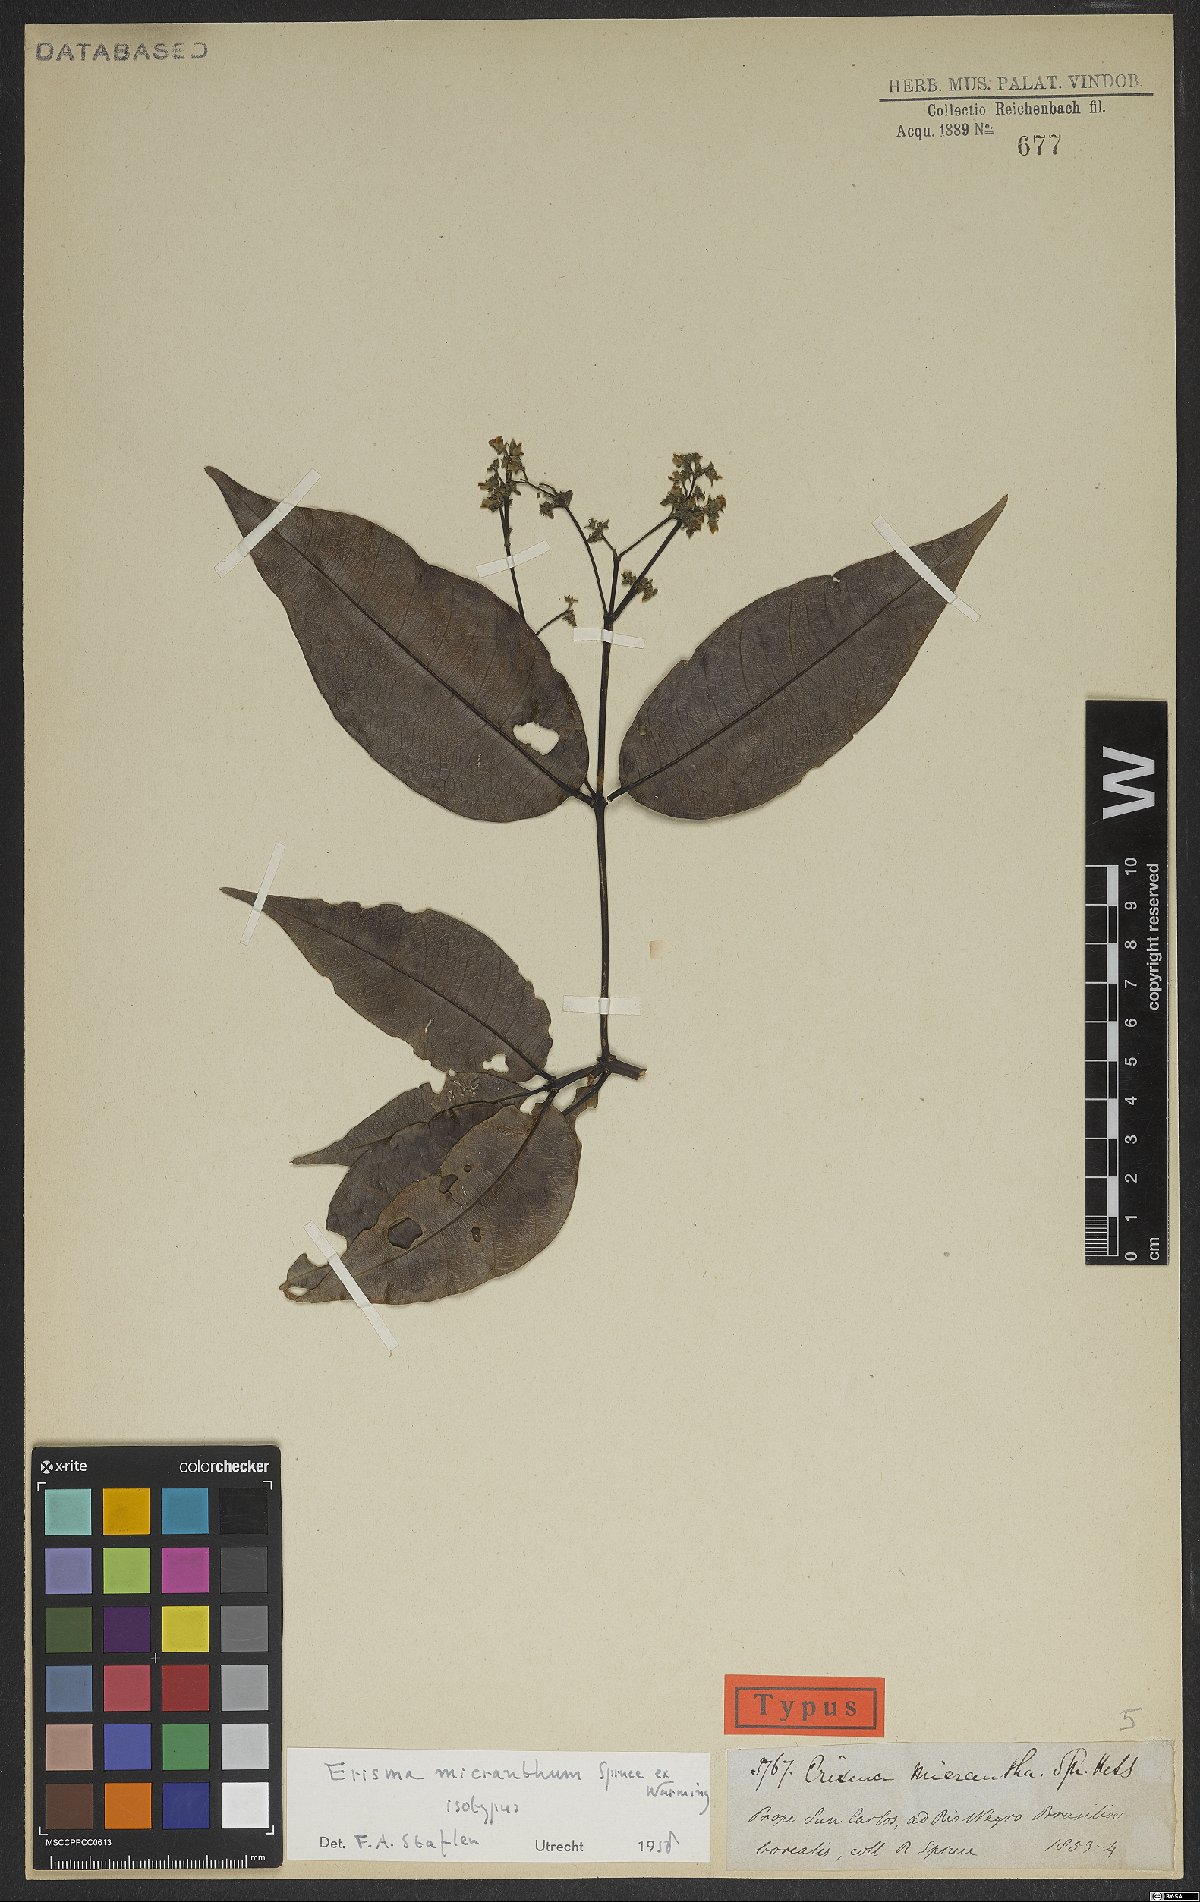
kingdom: Plantae
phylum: Tracheophyta
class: Magnoliopsida
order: Myrtales
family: Vochysiaceae
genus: Erisma
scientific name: Erisma micranthum
